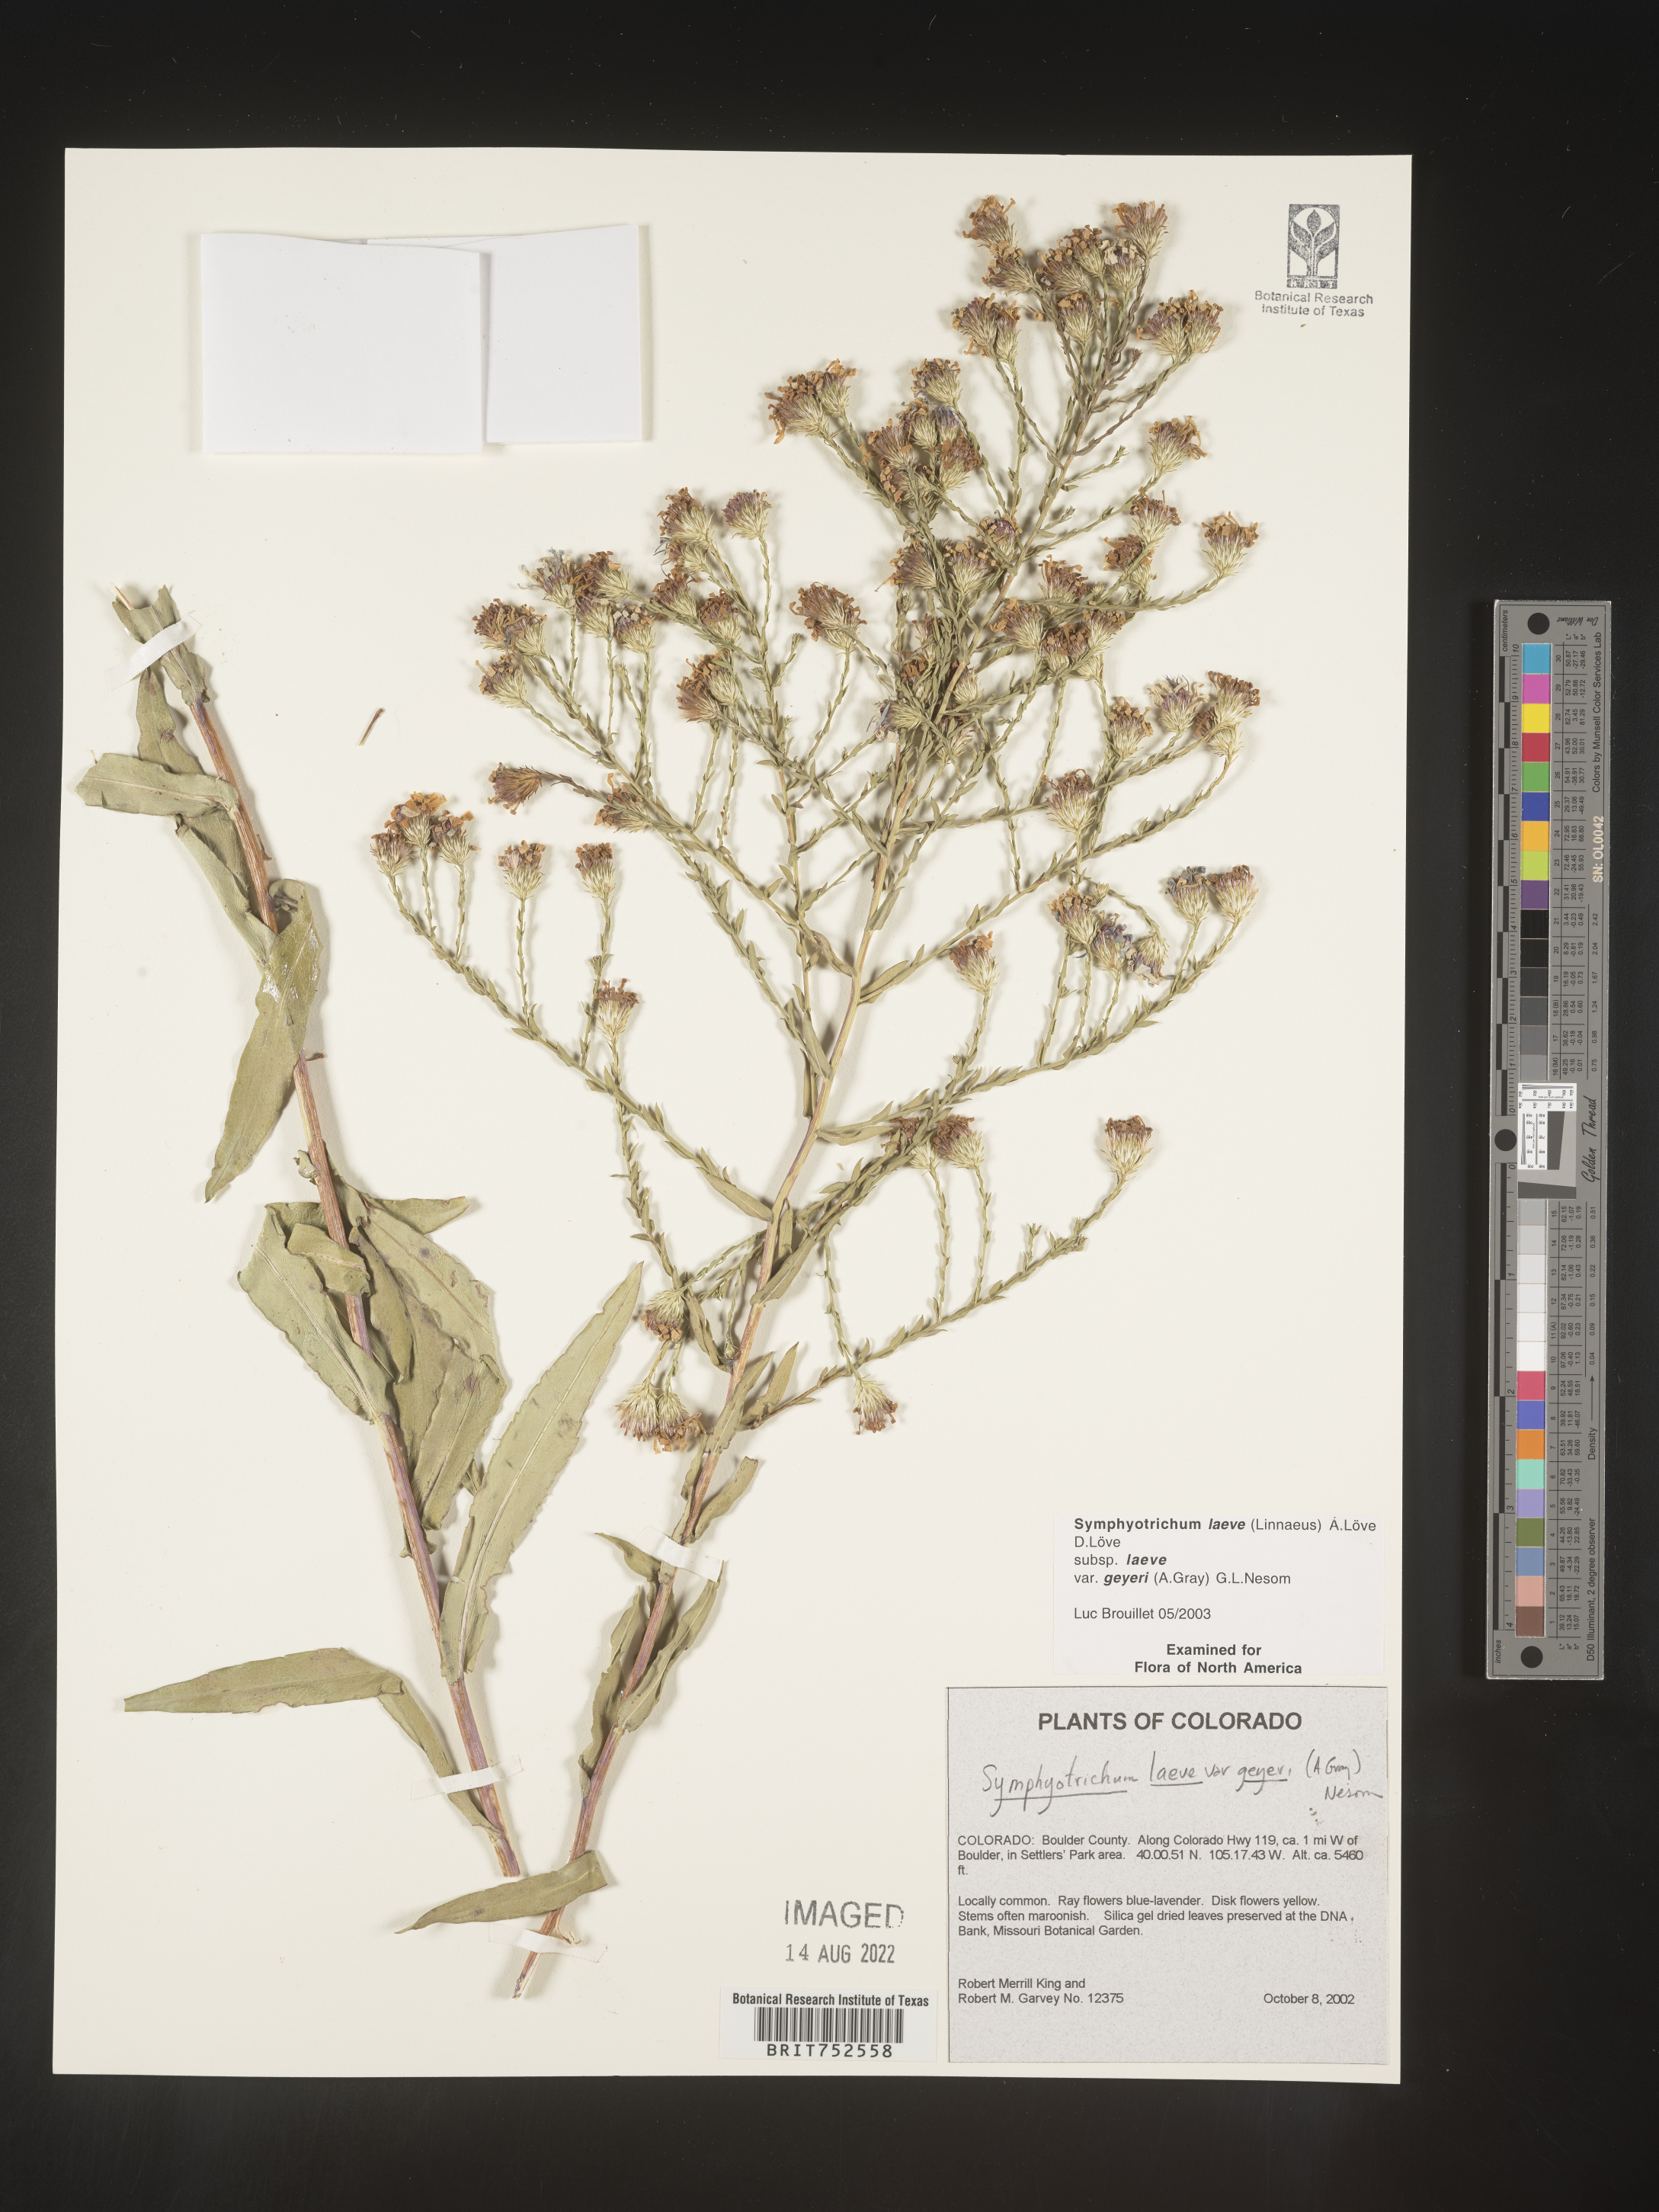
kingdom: Plantae
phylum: Tracheophyta
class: Magnoliopsida
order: Asterales
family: Asteraceae
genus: Symphyotrichum
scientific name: Symphyotrichum laeve
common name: Glaucous aster
